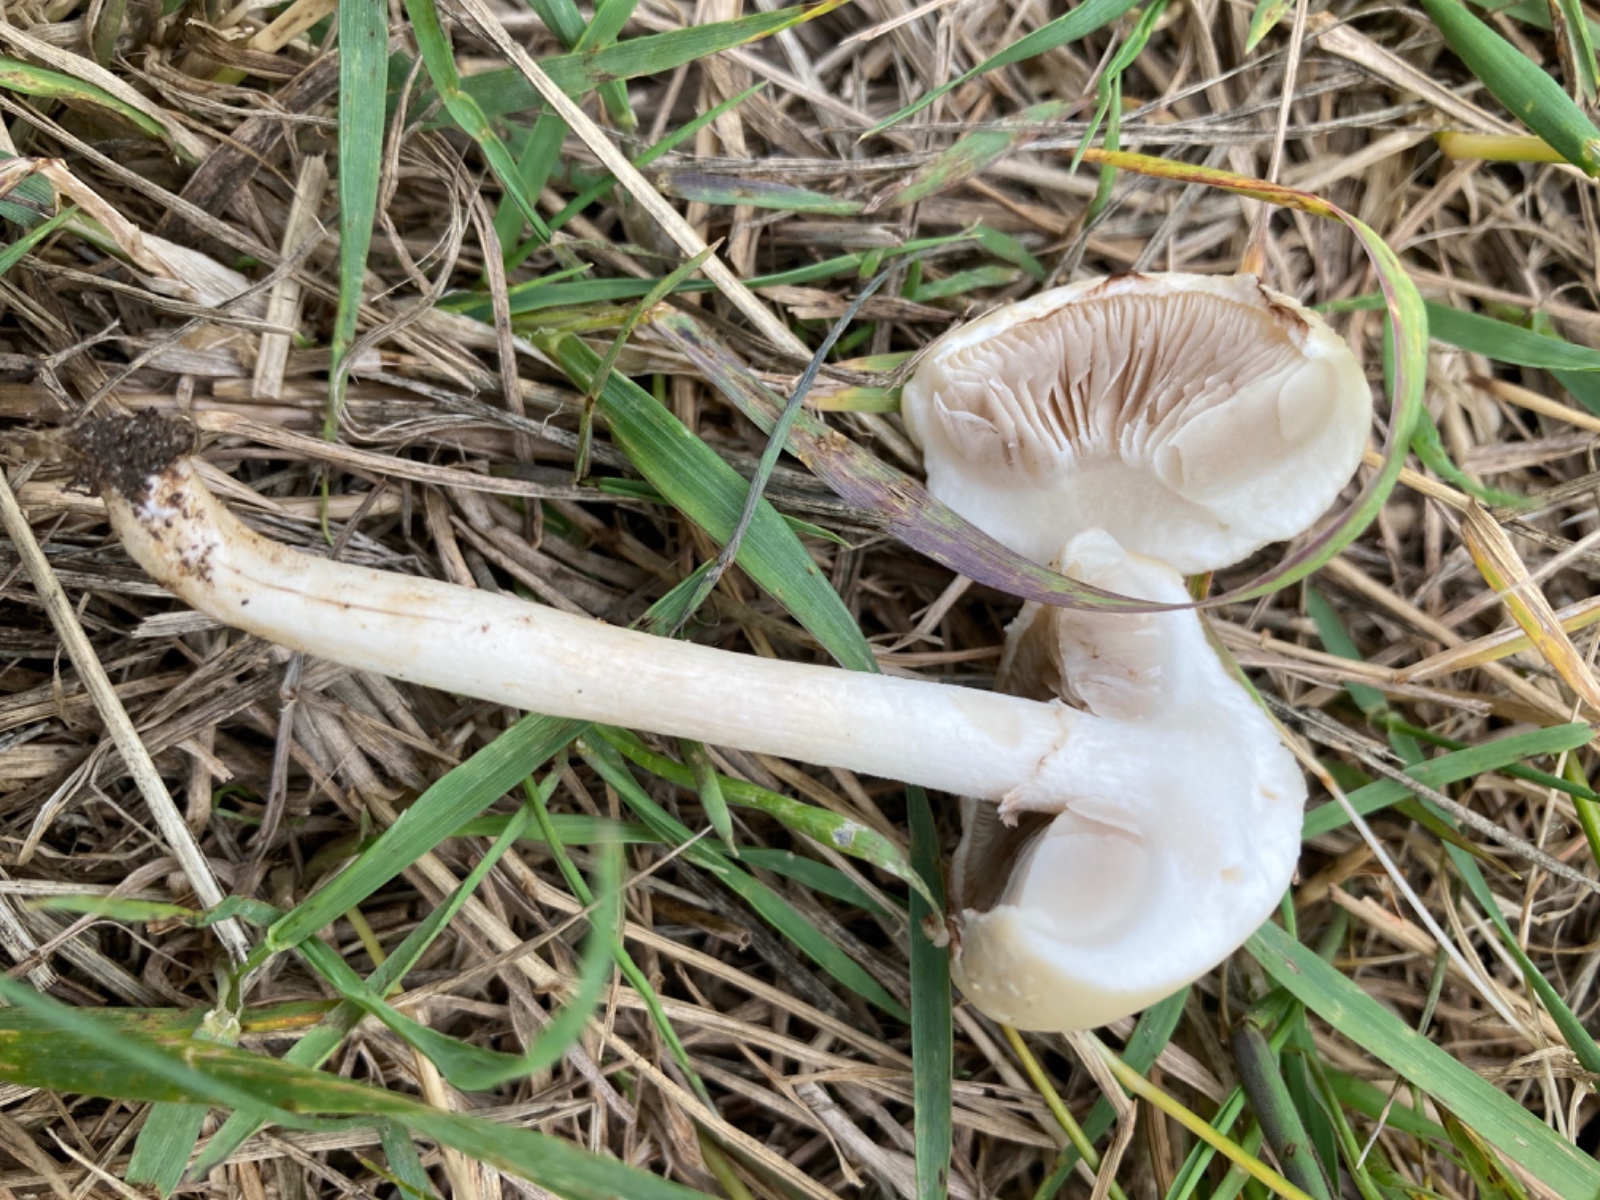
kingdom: Fungi
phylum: Basidiomycota
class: Agaricomycetes
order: Agaricales
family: Strophariaceae
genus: Agrocybe
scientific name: Agrocybe dura
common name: fastkødet agerhat
